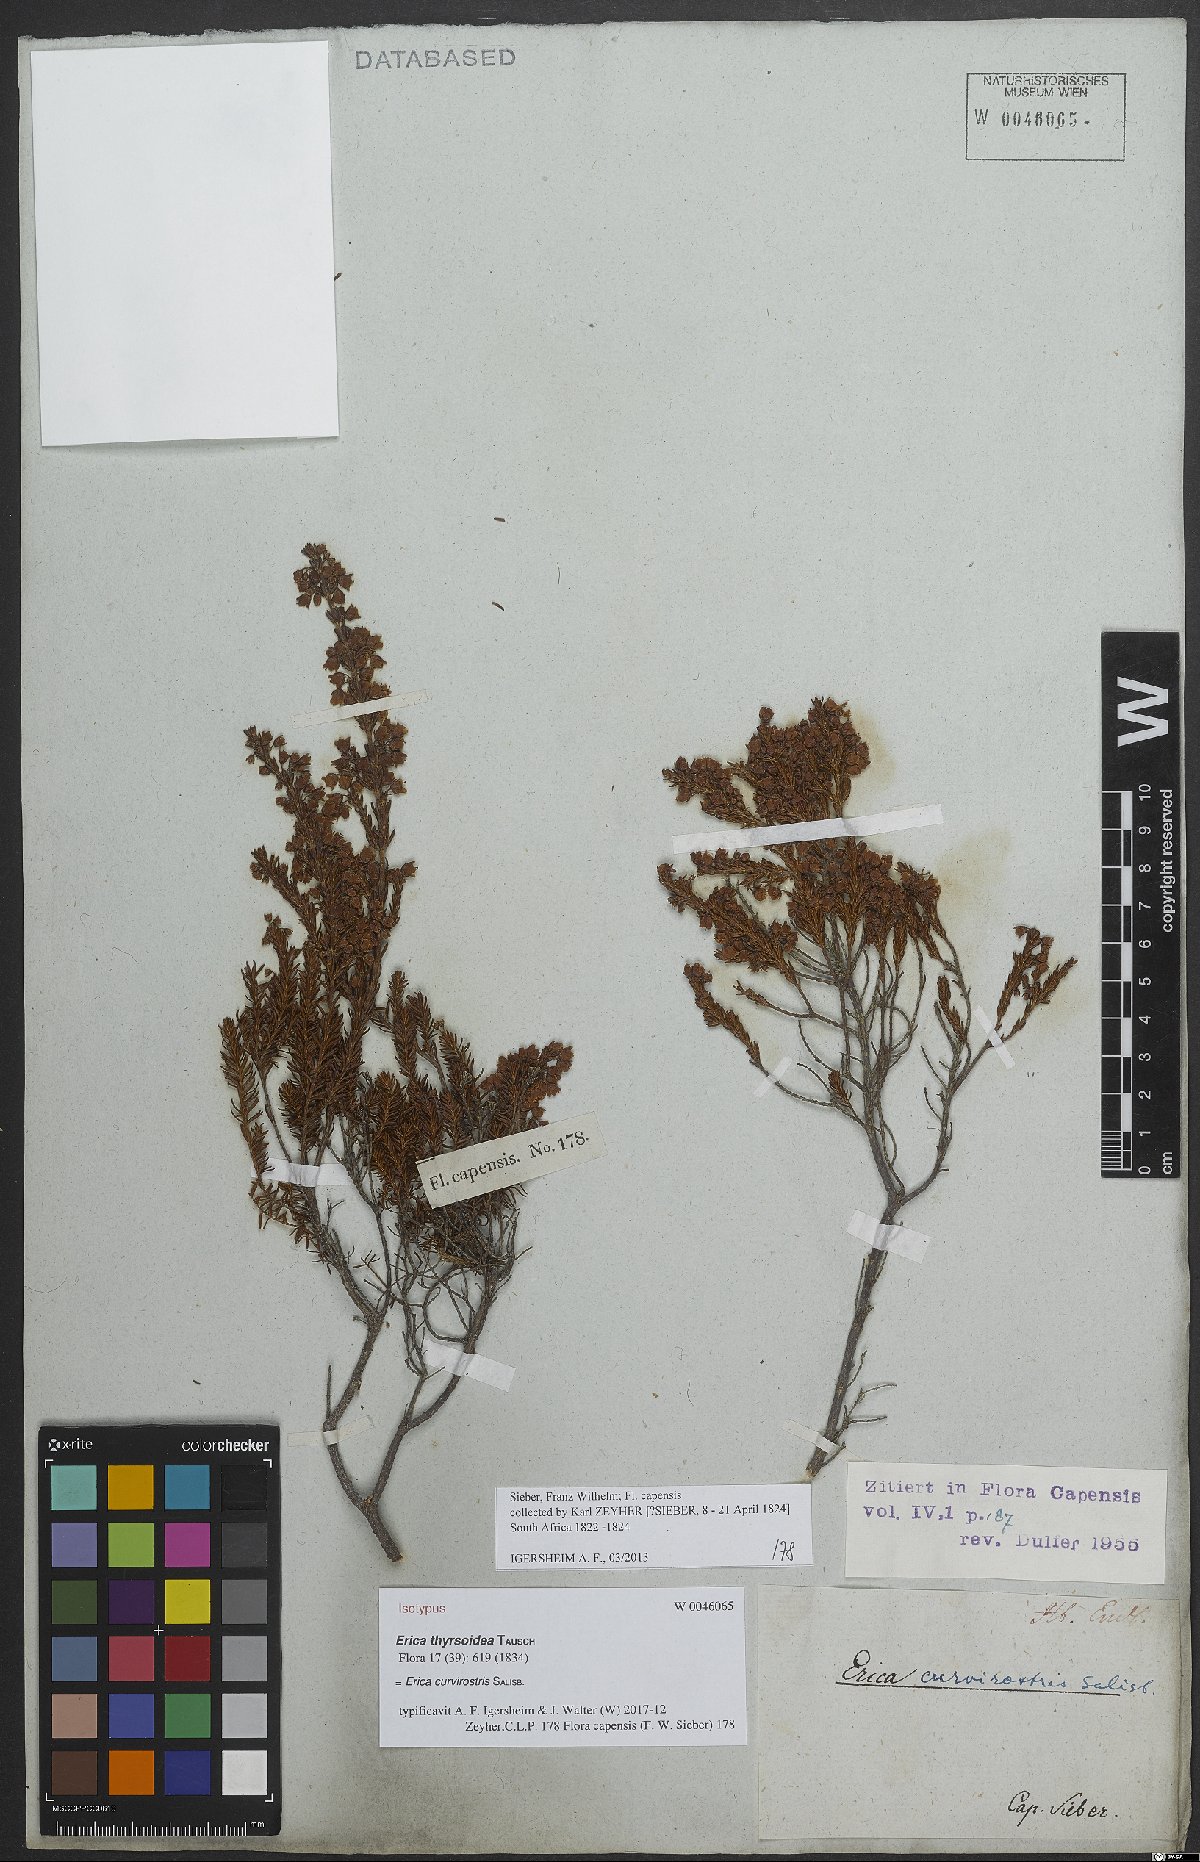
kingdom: Plantae
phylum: Tracheophyta
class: Magnoliopsida
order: Ericales
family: Ericaceae
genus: Erica
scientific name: Erica curvirostris
